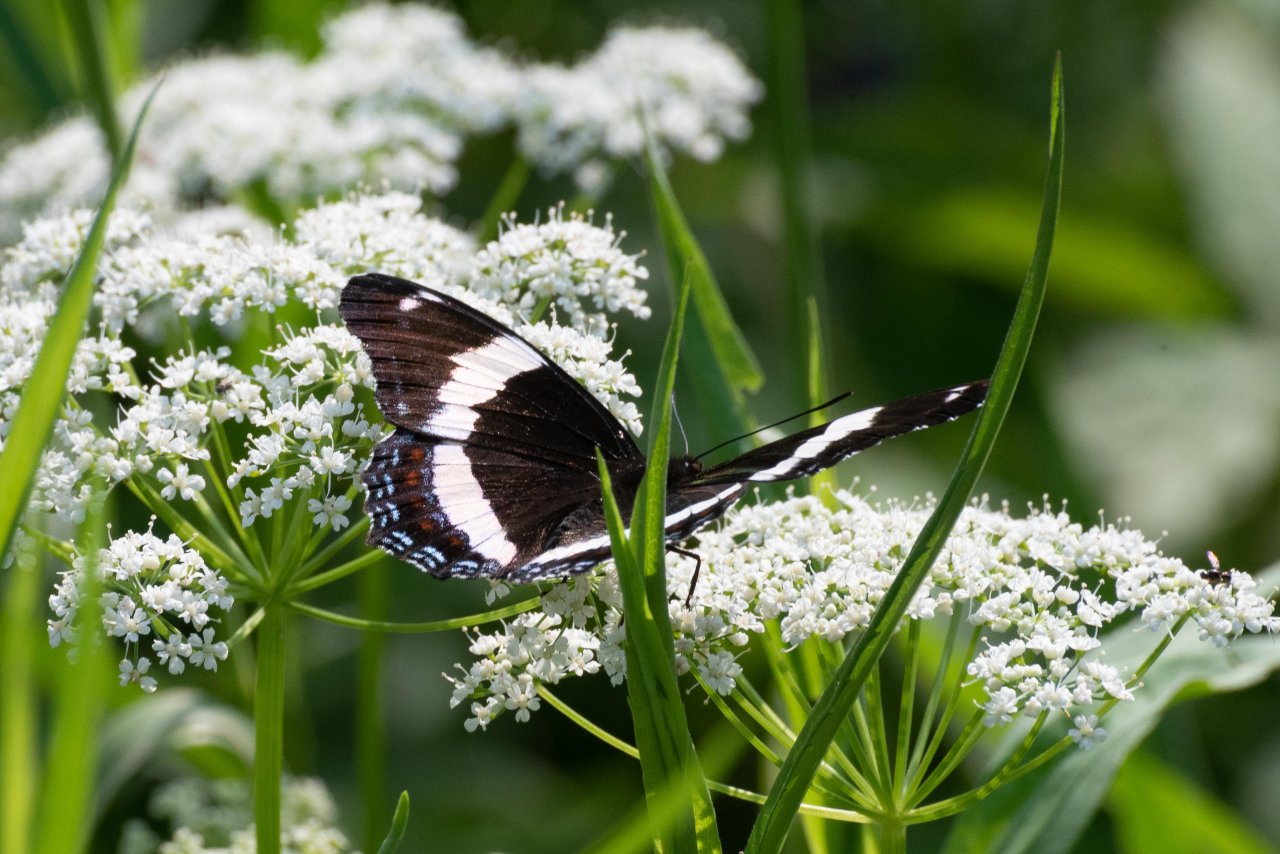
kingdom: Animalia
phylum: Arthropoda
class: Insecta
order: Lepidoptera
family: Nymphalidae
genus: Limenitis
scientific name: Limenitis arthemis
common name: Red-spotted Admiral
